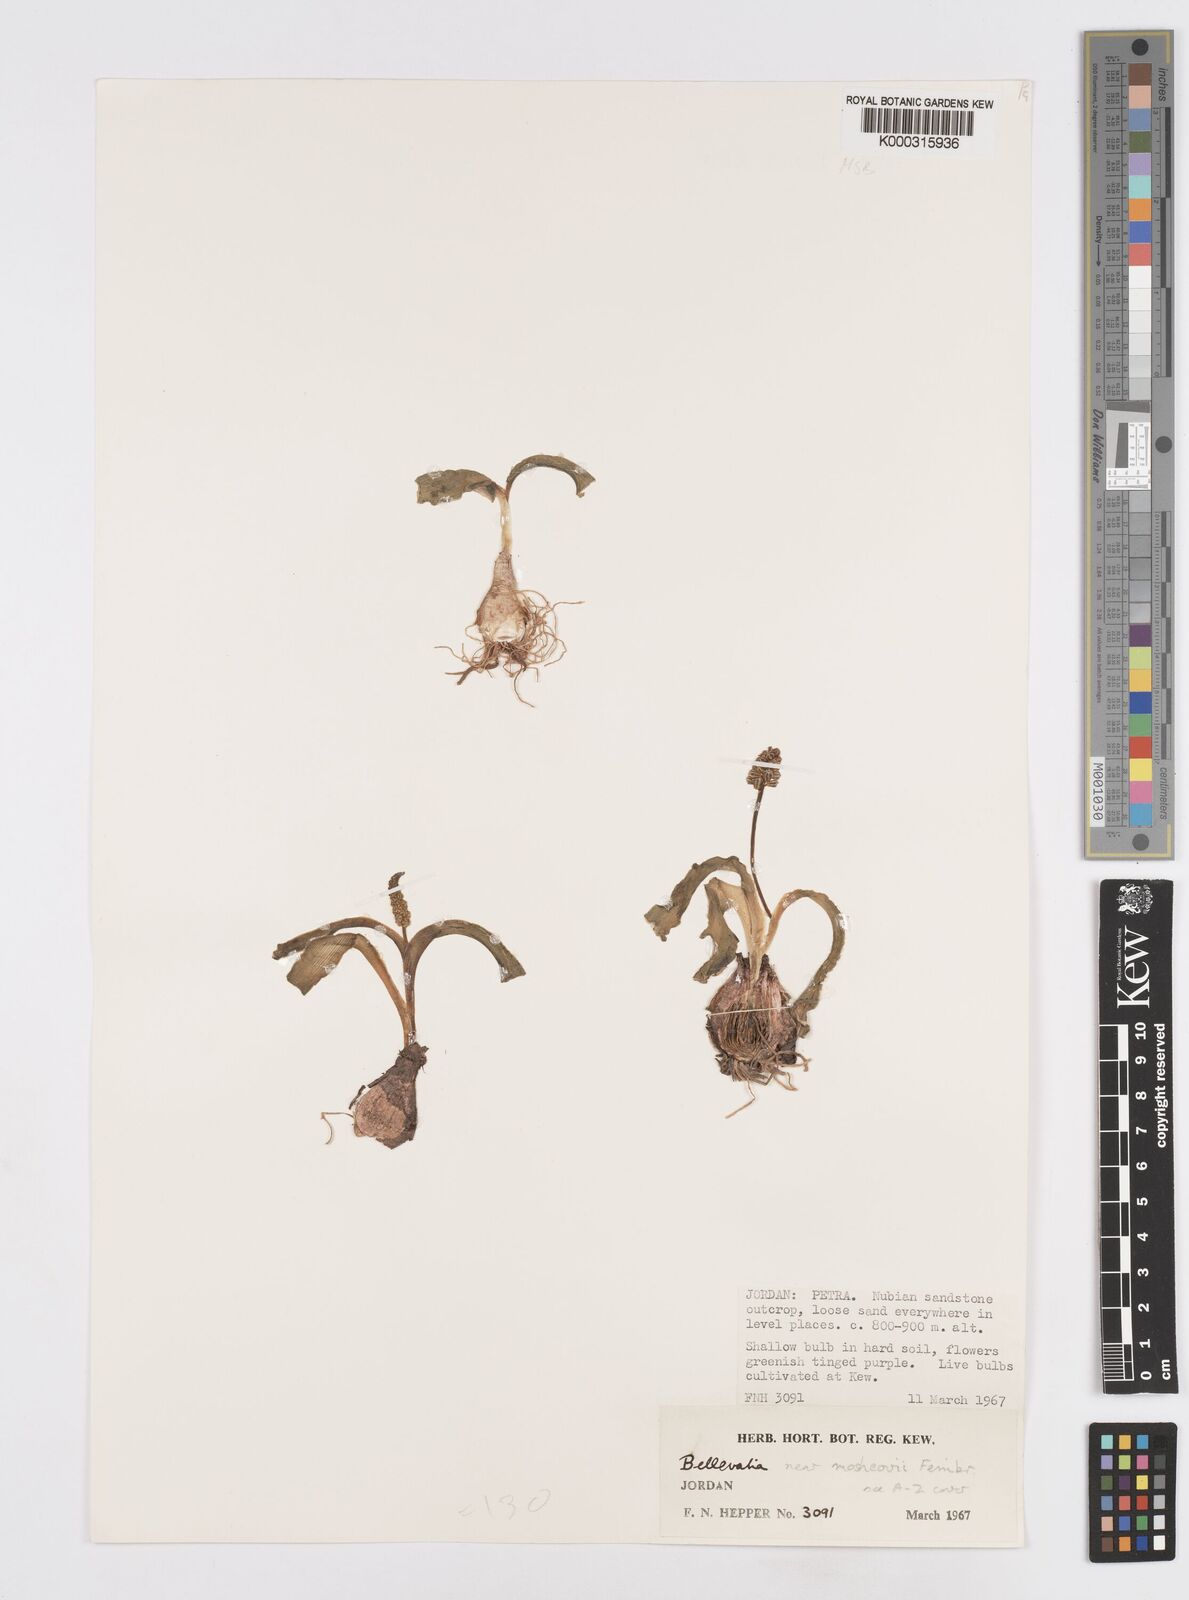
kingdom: Plantae
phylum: Tracheophyta
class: Liliopsida
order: Asparagales
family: Asparagaceae
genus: Bellevalia
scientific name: Bellevalia mosheovii
